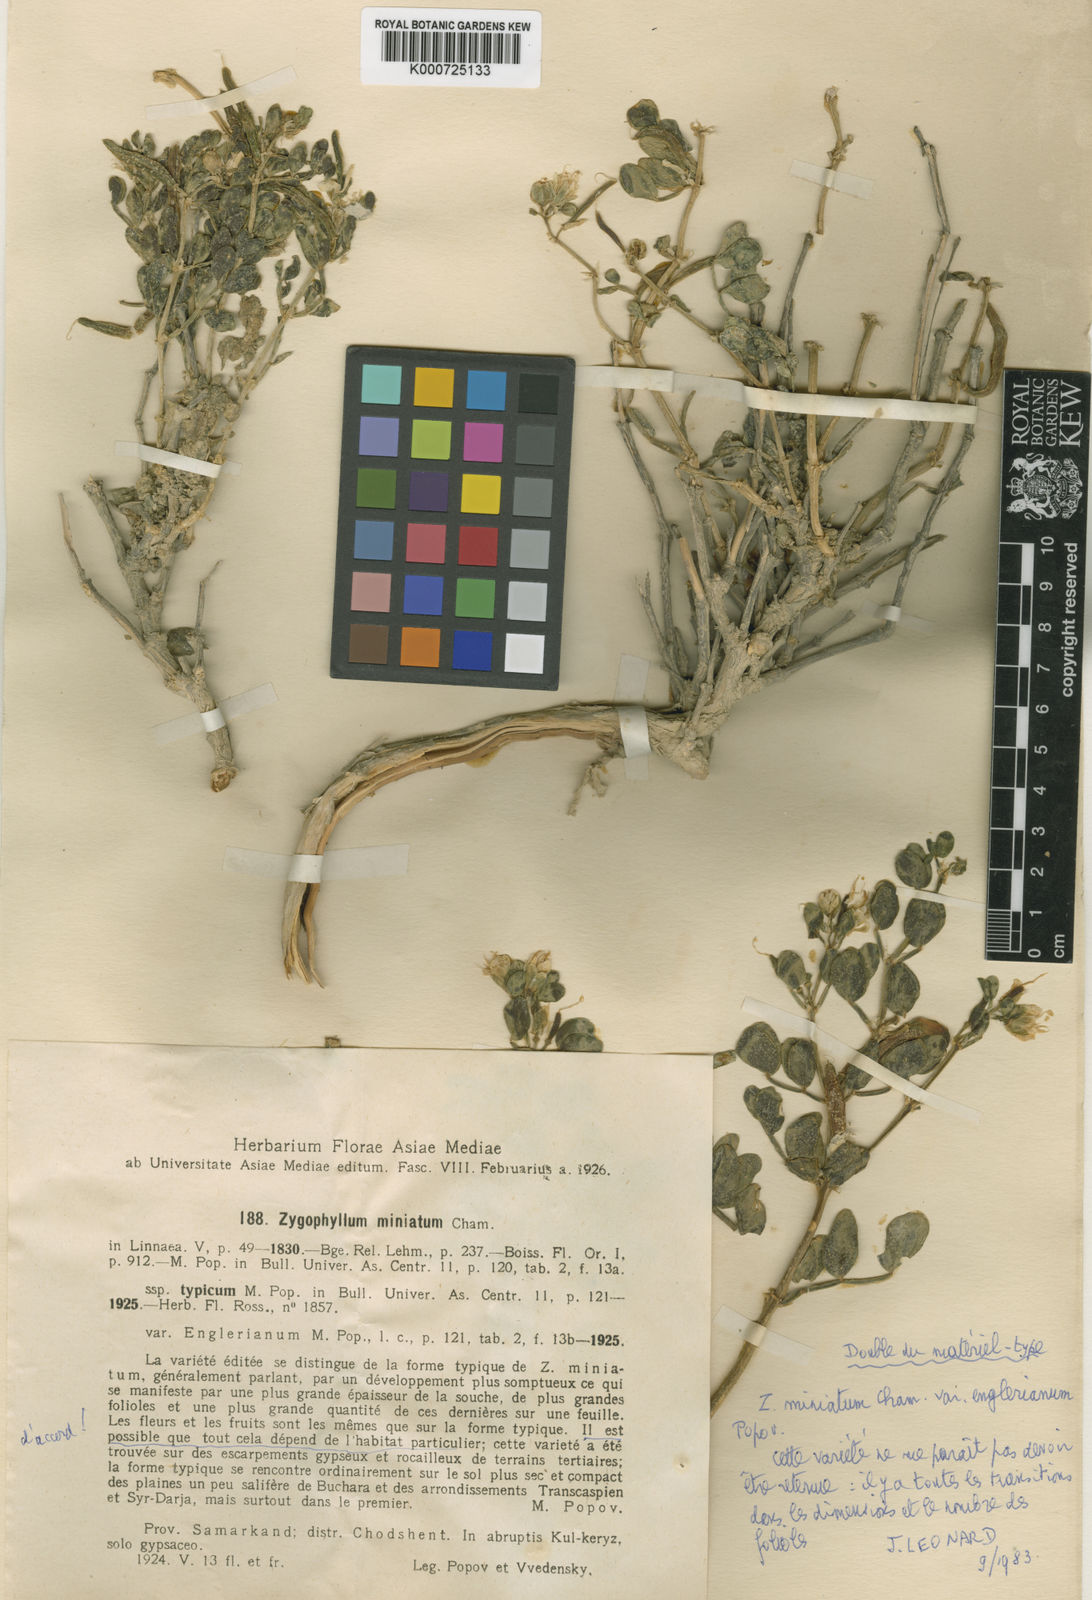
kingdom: Plantae
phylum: Tracheophyta
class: Magnoliopsida
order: Zygophyllales
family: Zygophyllaceae
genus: Zygophyllum
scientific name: Zygophyllum miniatum
